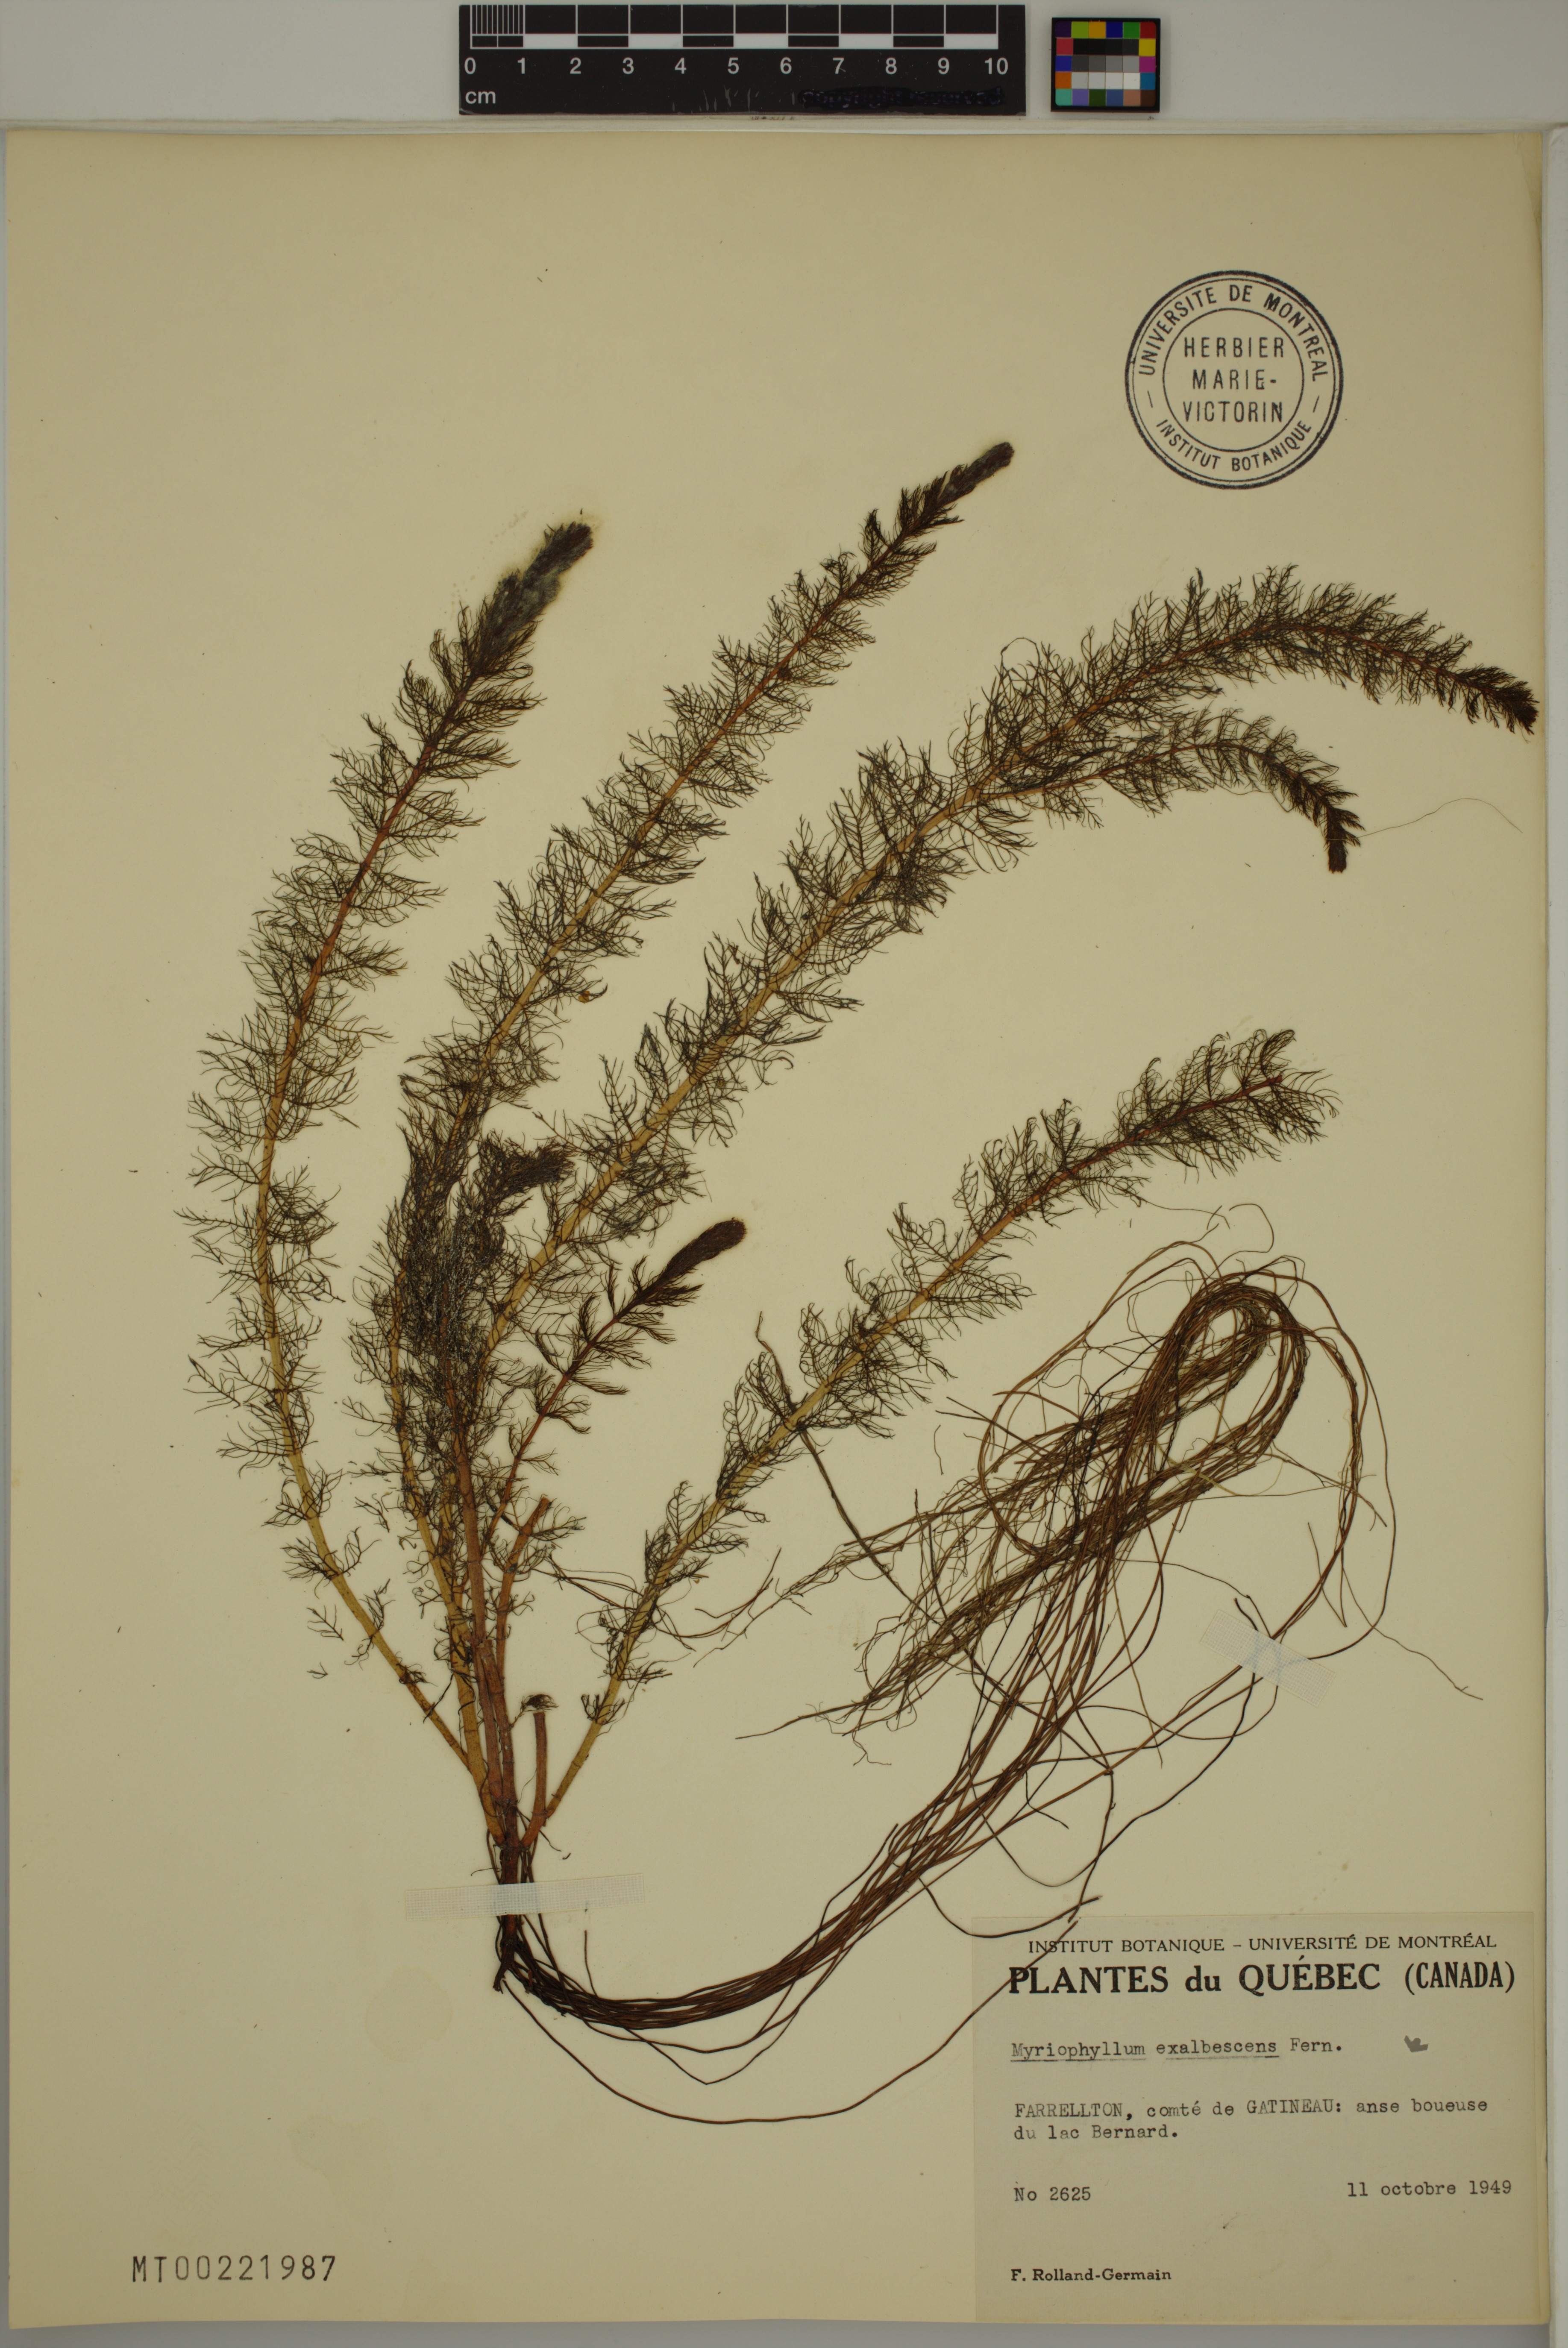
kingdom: Plantae
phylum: Tracheophyta
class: Magnoliopsida
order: Saxifragales
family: Haloragaceae
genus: Myriophyllum
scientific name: Myriophyllum sibiricum
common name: Siberian water-milfoil
